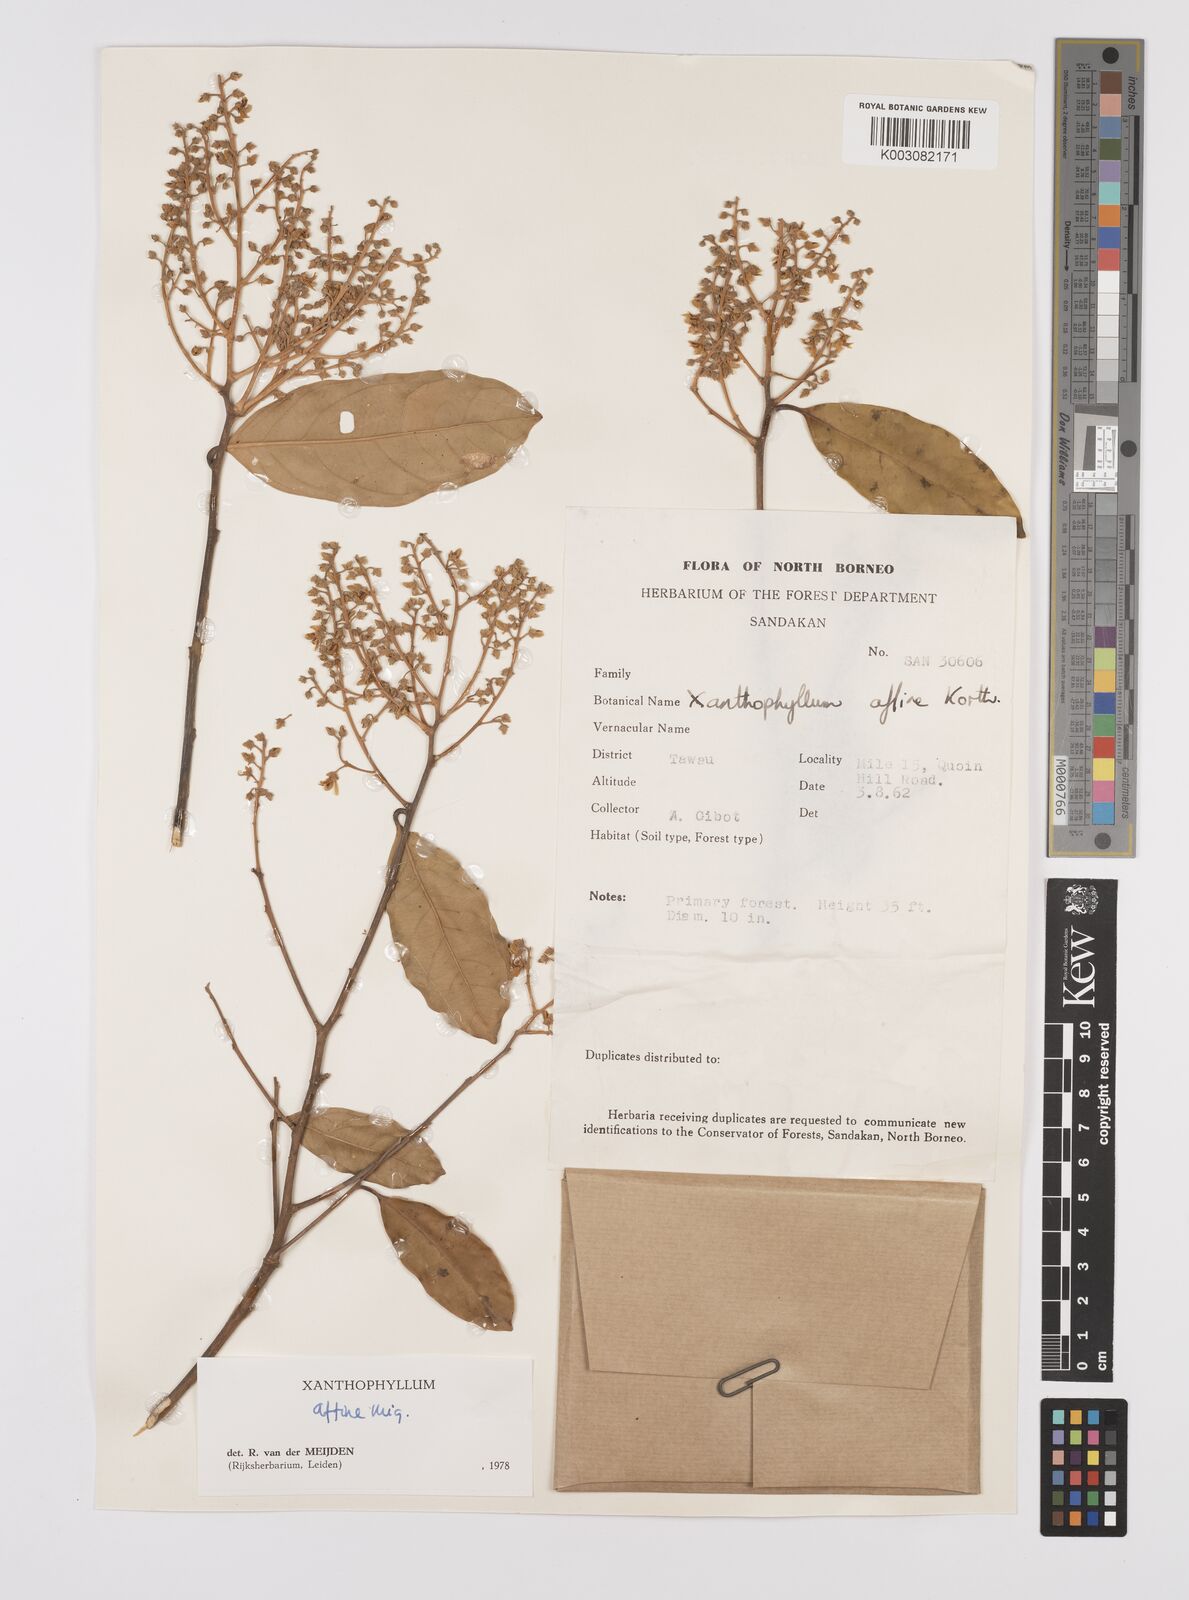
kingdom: Plantae
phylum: Tracheophyta
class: Magnoliopsida
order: Fabales
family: Polygalaceae
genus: Xanthophyllum
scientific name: Xanthophyllum flavescens
